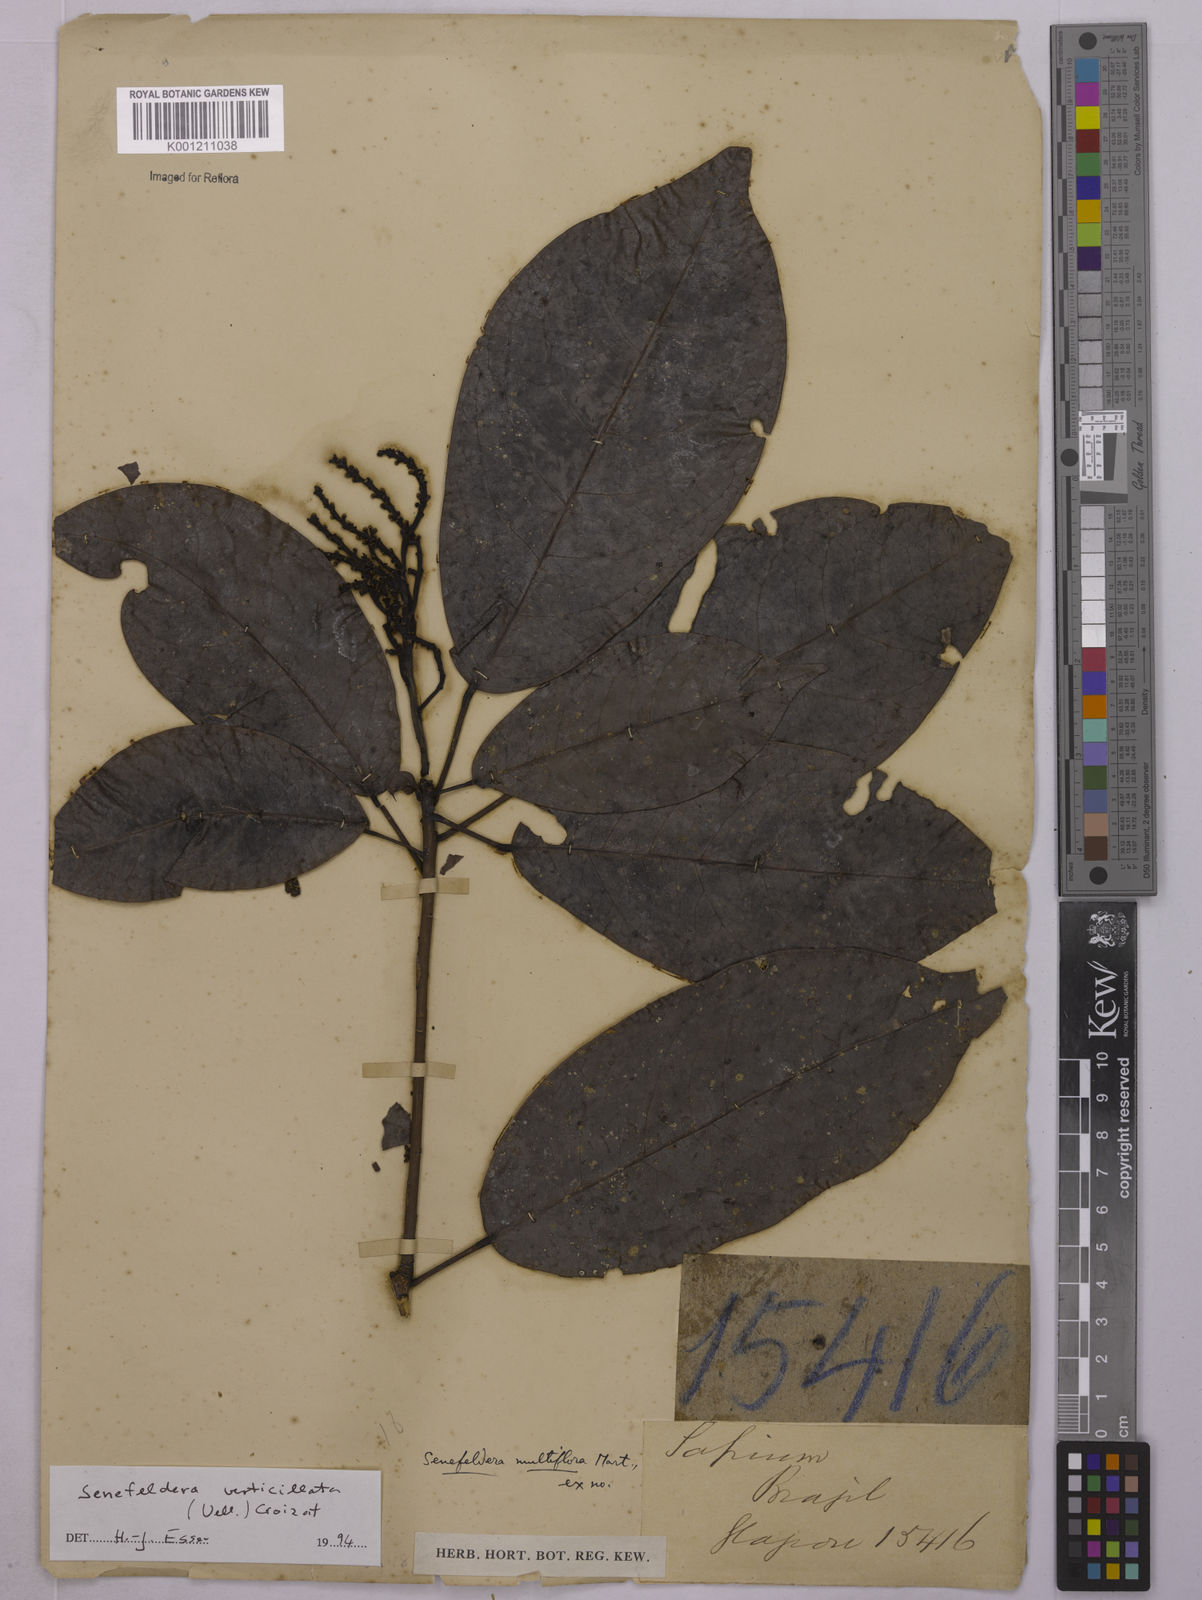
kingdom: Plantae
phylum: Tracheophyta
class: Magnoliopsida
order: Malpighiales
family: Euphorbiaceae
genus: Senefeldera
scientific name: Senefeldera verticillata
